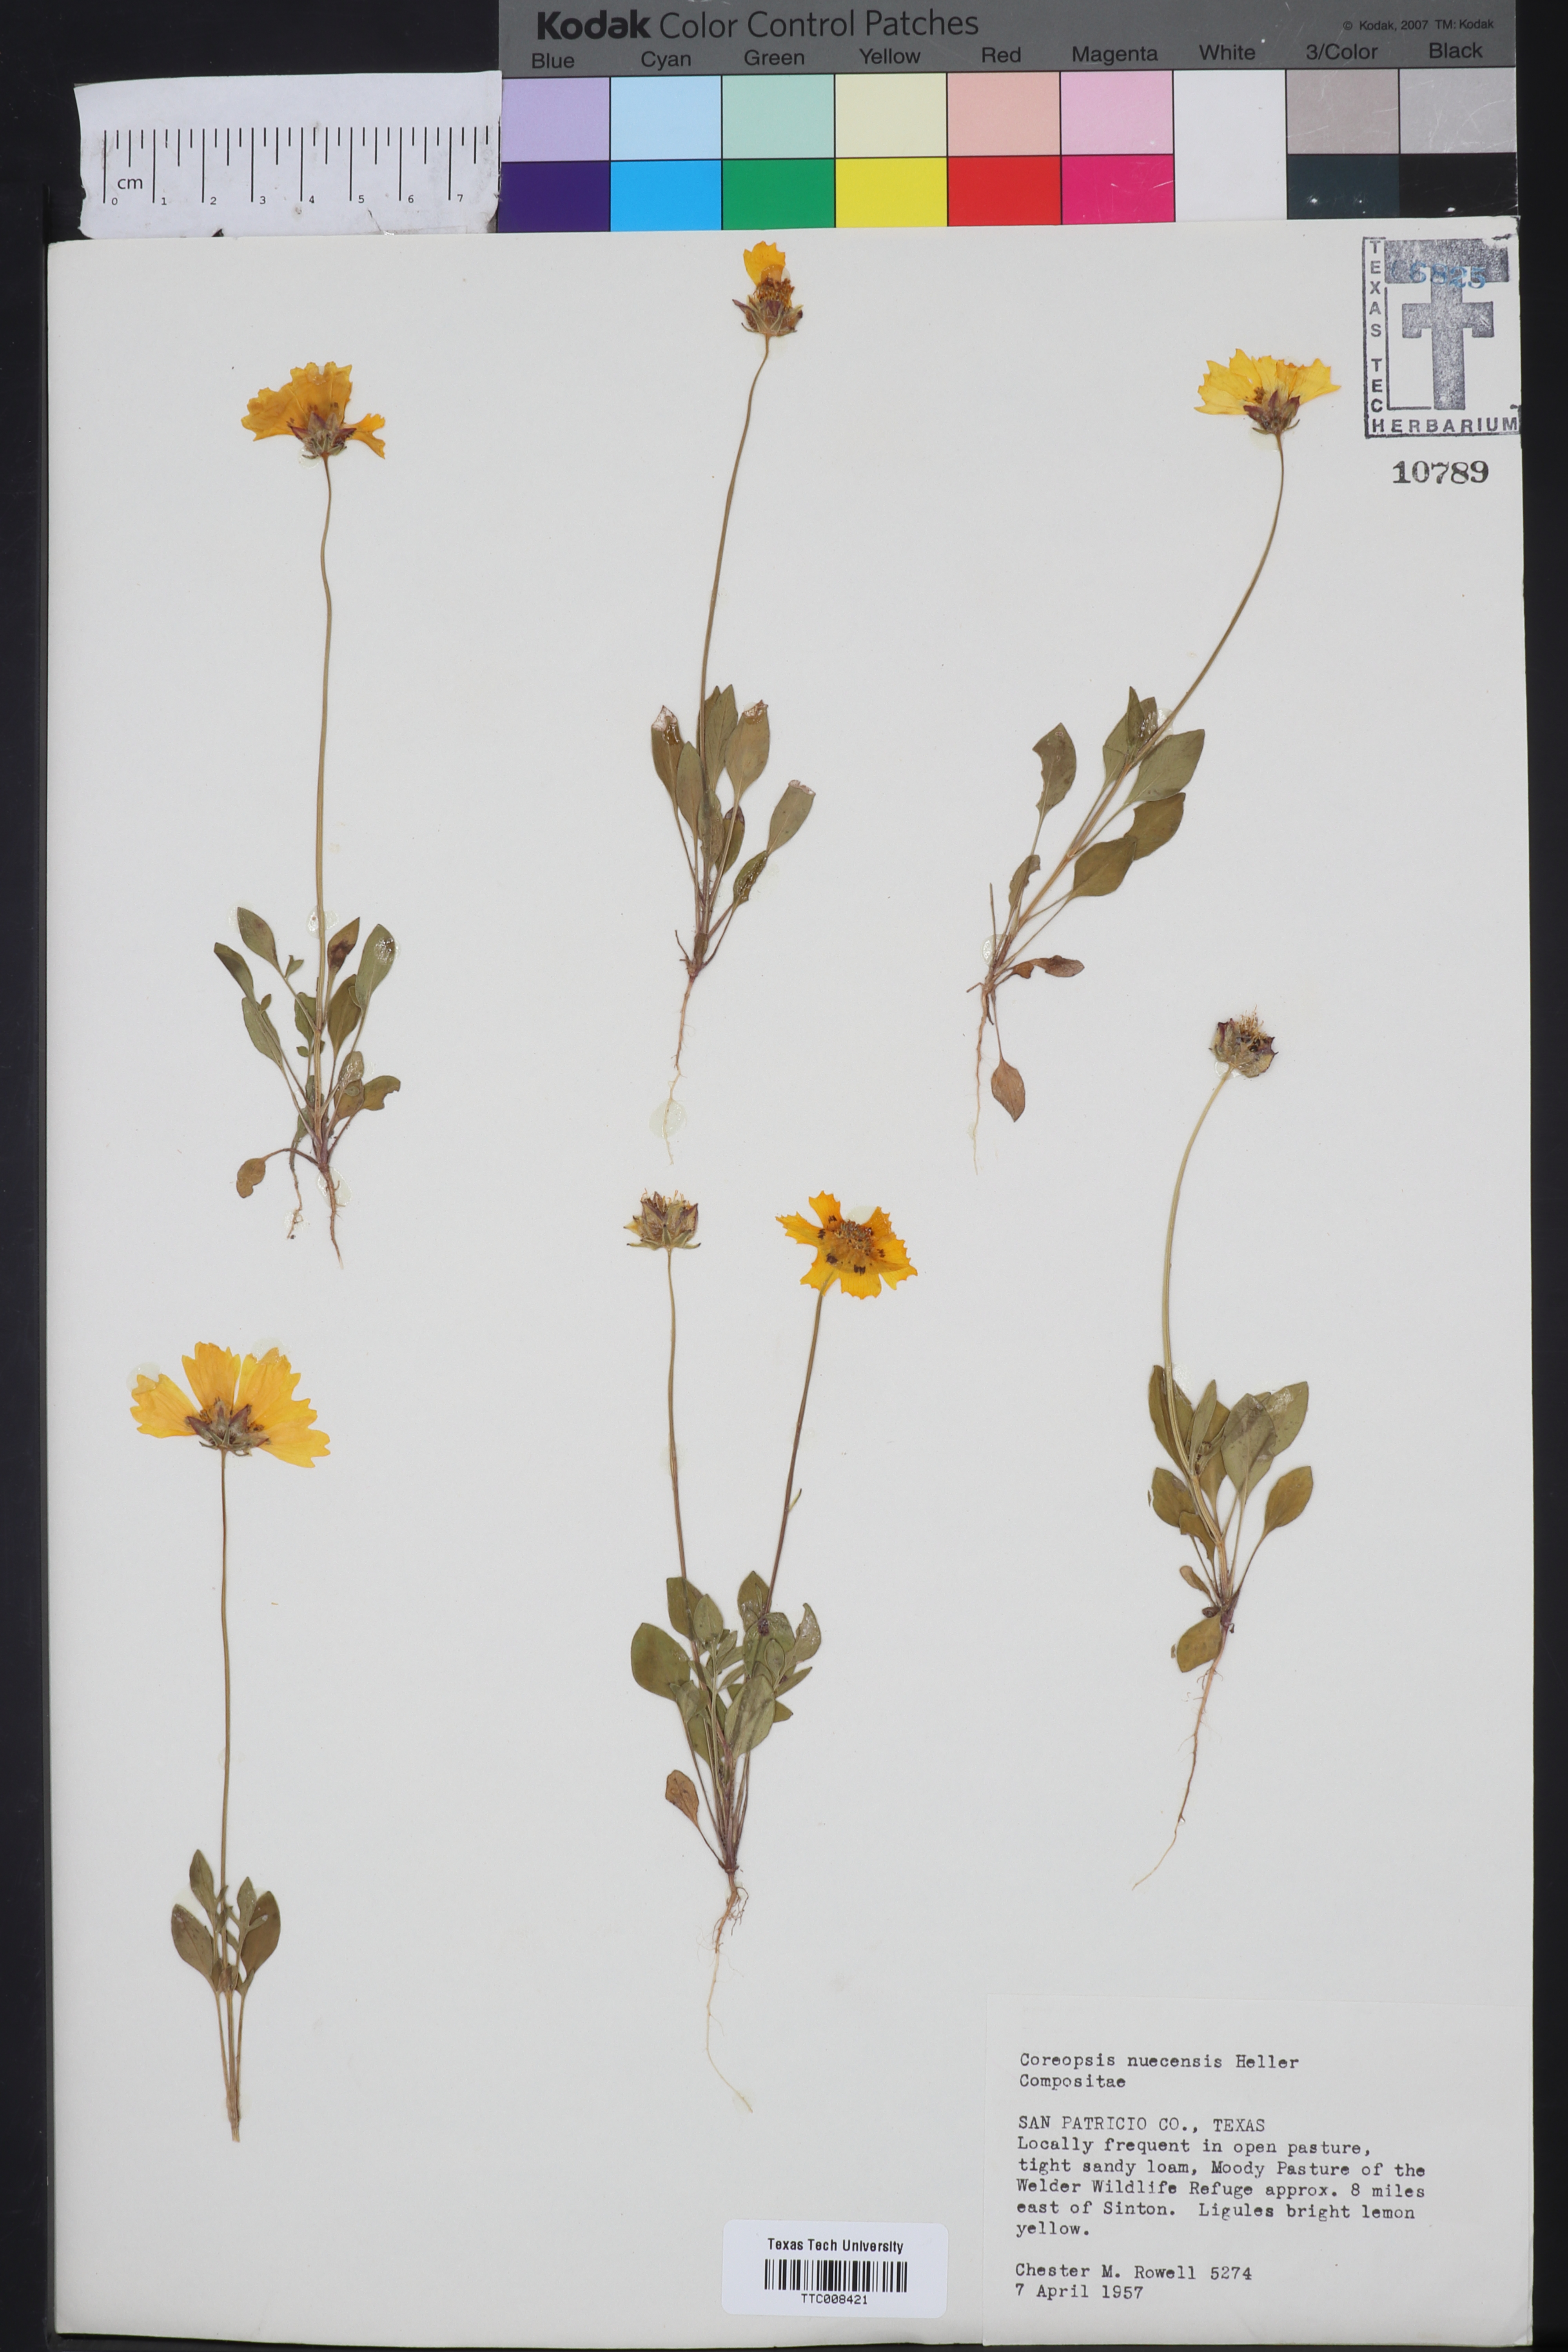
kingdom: Plantae
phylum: Tracheophyta
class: Magnoliopsida
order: Asterales
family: Asteraceae
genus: Coreopsis
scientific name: Coreopsis nuecensis
